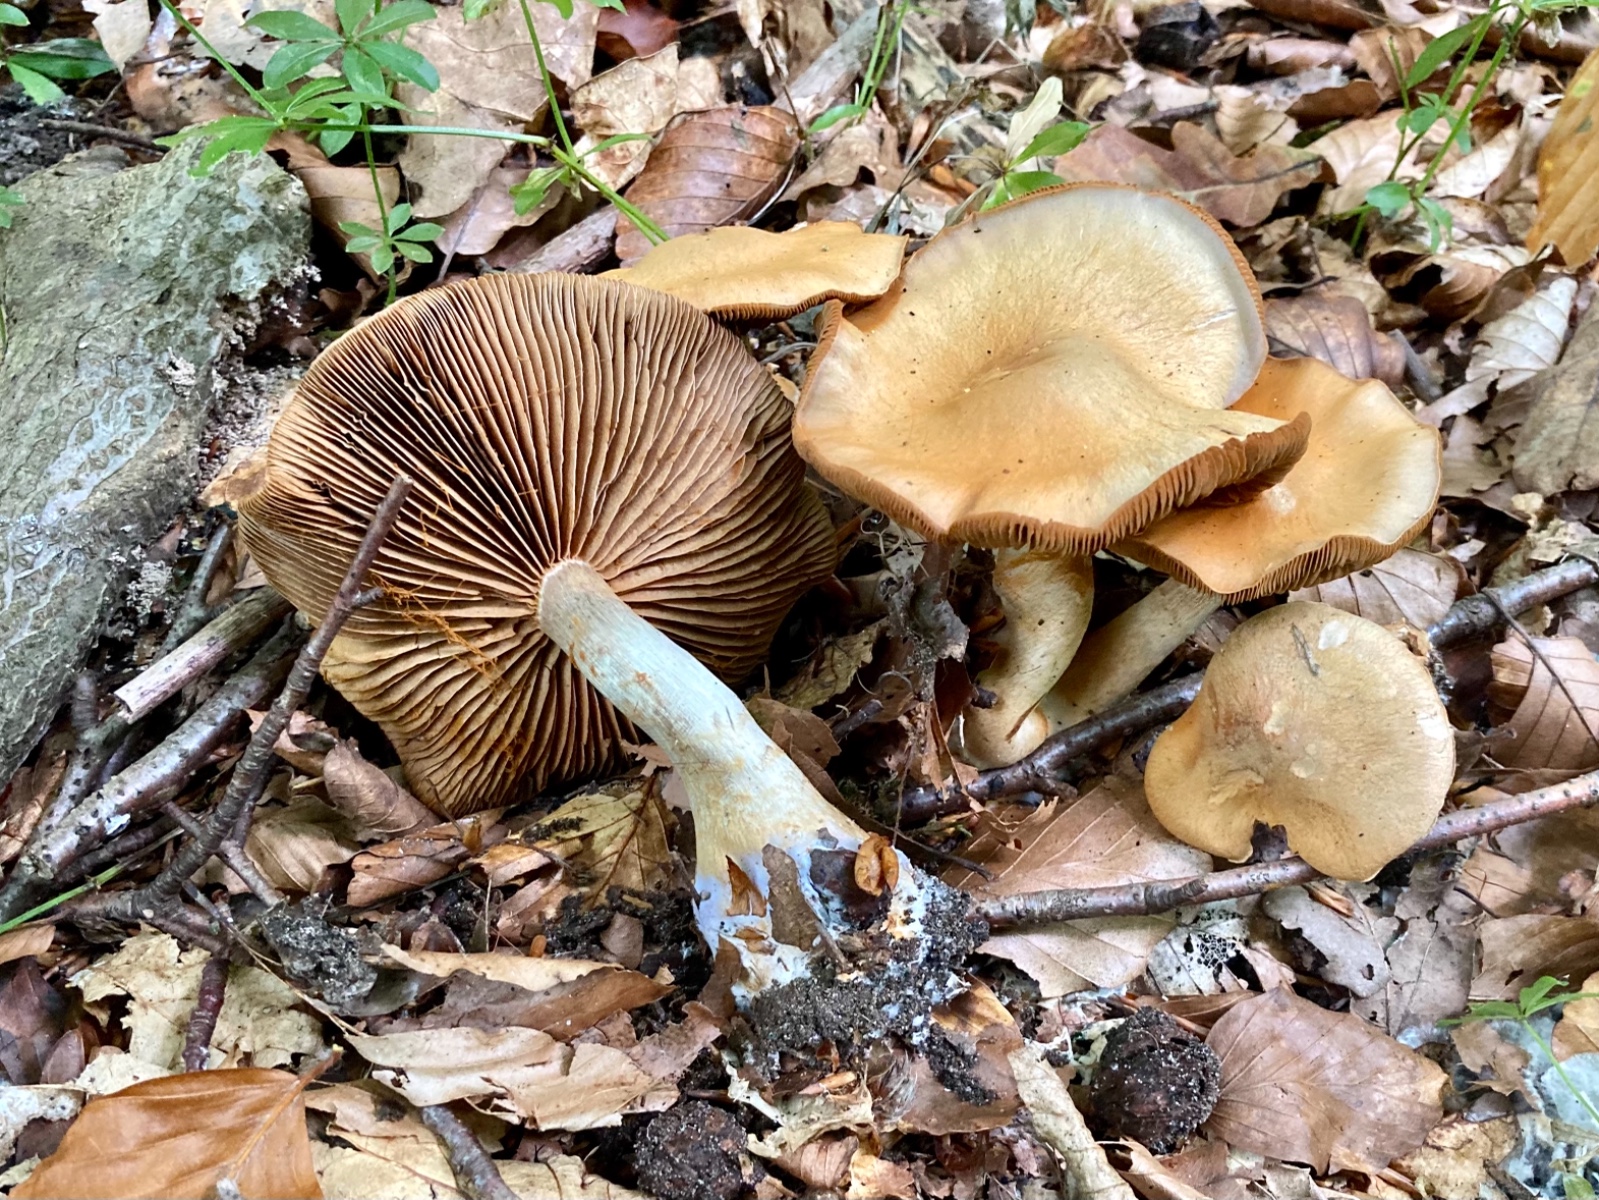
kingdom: Fungi
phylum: Basidiomycota
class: Agaricomycetes
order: Agaricales
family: Cortinariaceae
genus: Cortinarius
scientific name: Cortinarius
